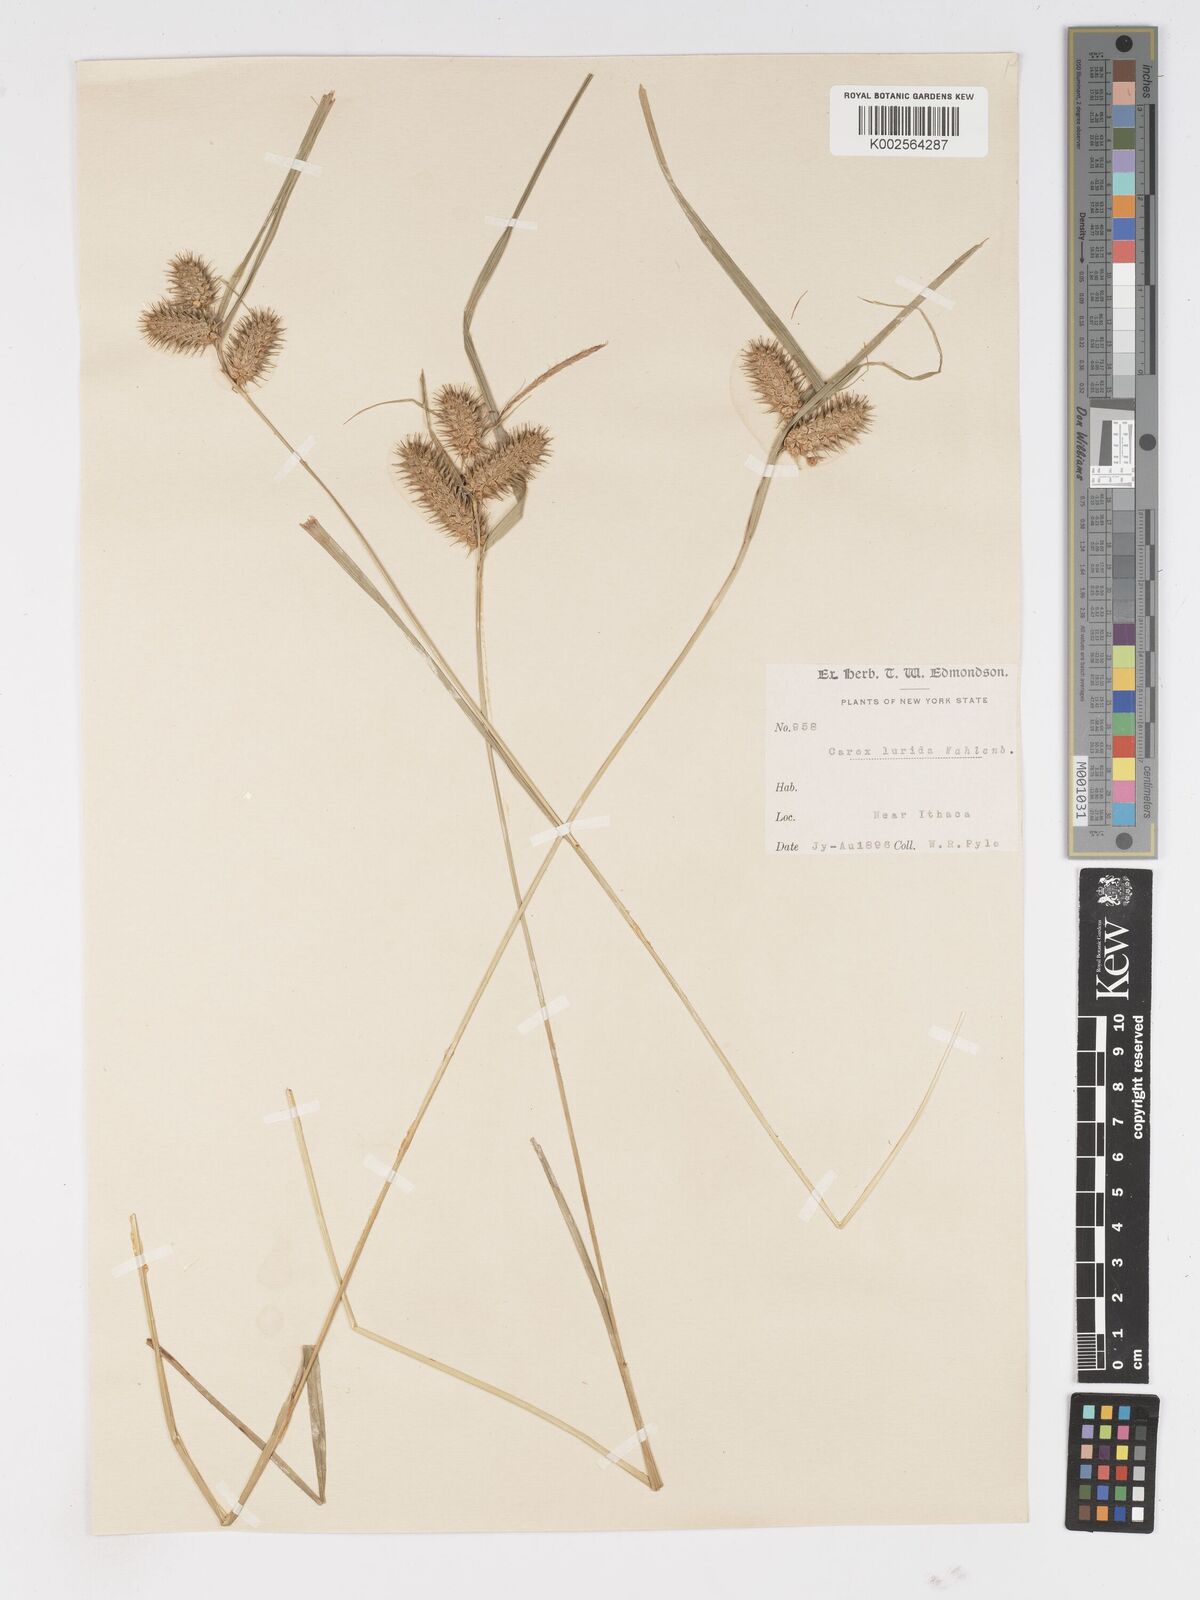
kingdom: Plantae
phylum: Tracheophyta
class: Liliopsida
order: Poales
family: Cyperaceae
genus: Carex
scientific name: Carex lurida
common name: Sallow sedge
